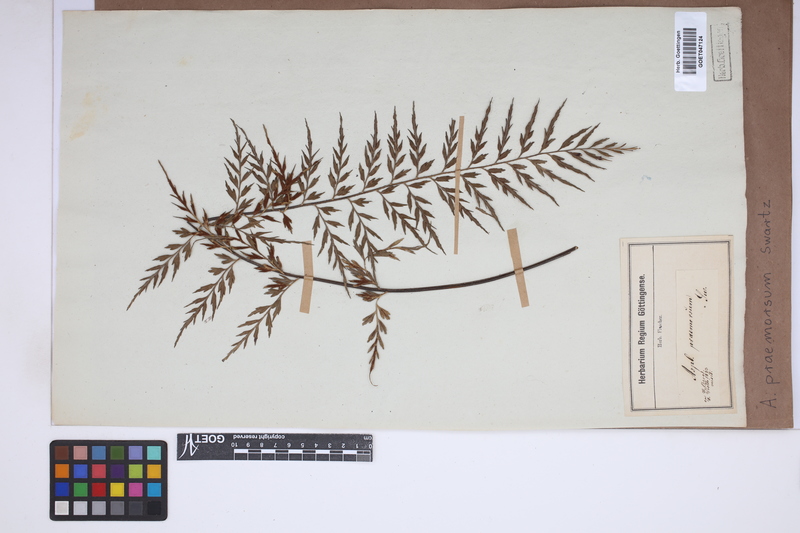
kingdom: Plantae
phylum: Tracheophyta
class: Polypodiopsida
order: Polypodiales
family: Aspleniaceae
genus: Asplenium
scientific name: Asplenium praemorsum
